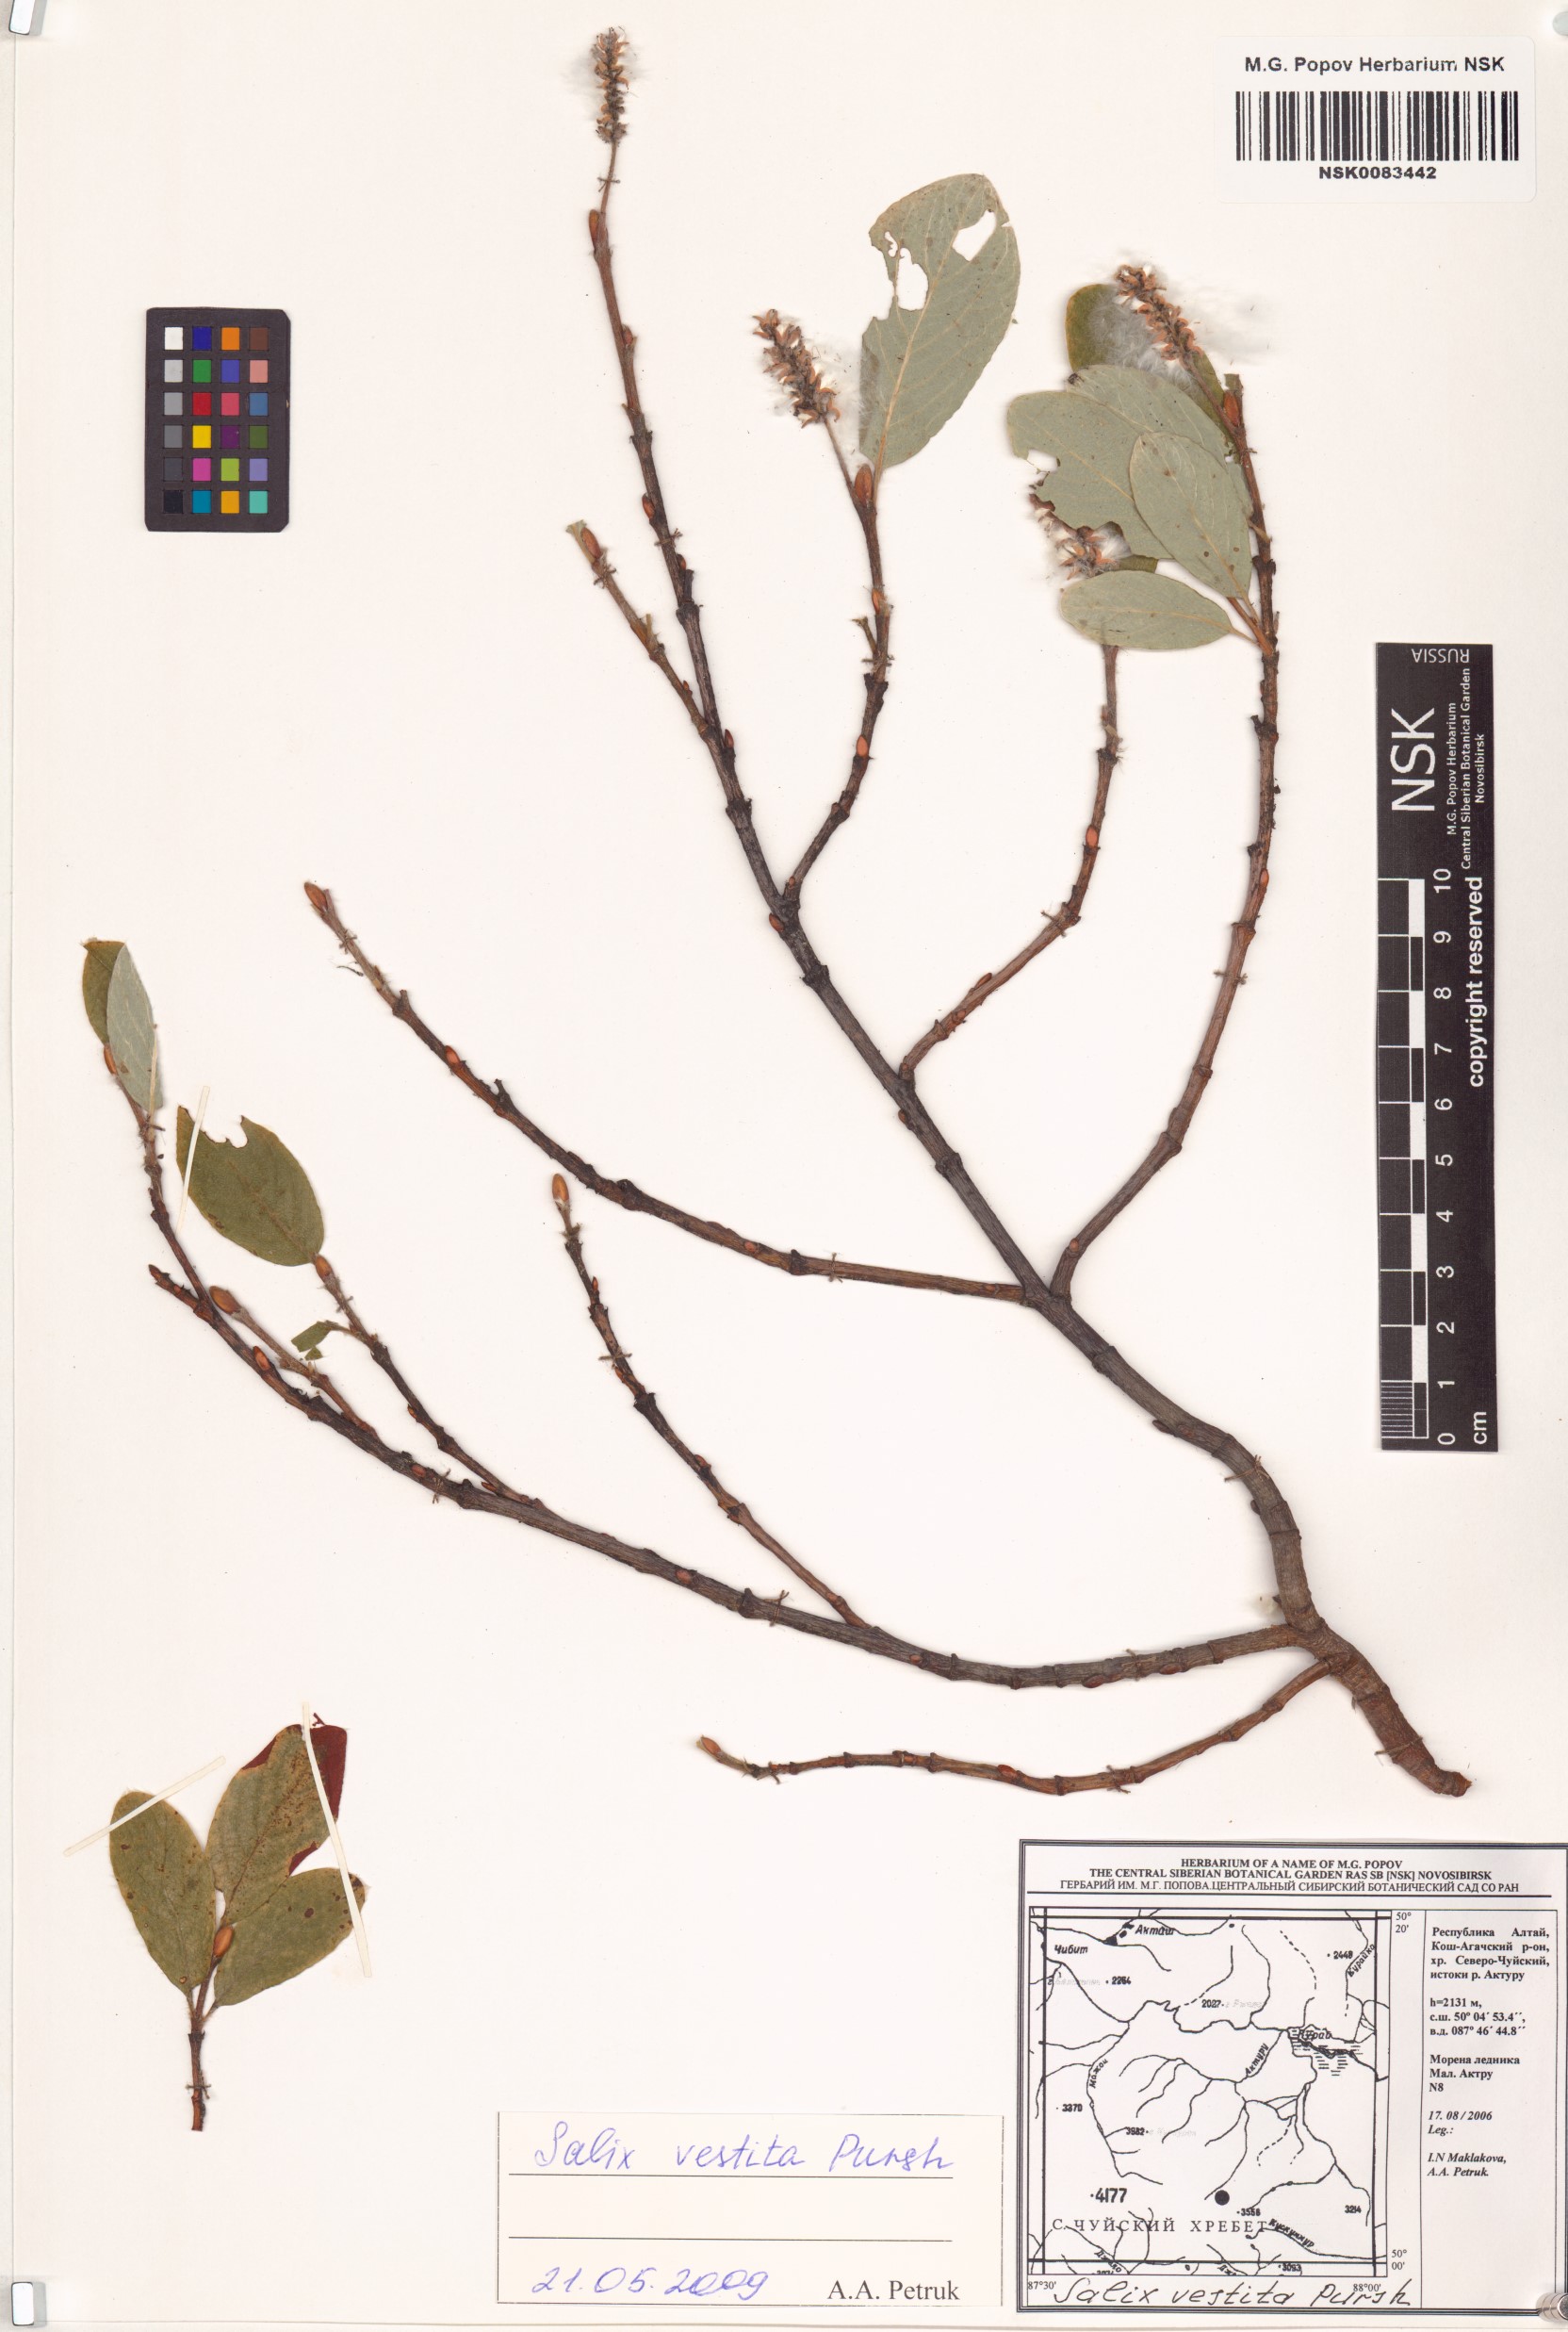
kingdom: Plantae
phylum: Tracheophyta
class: Magnoliopsida
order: Malpighiales
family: Salicaceae
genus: Salix
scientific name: Salix vestita
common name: Hairy willow
